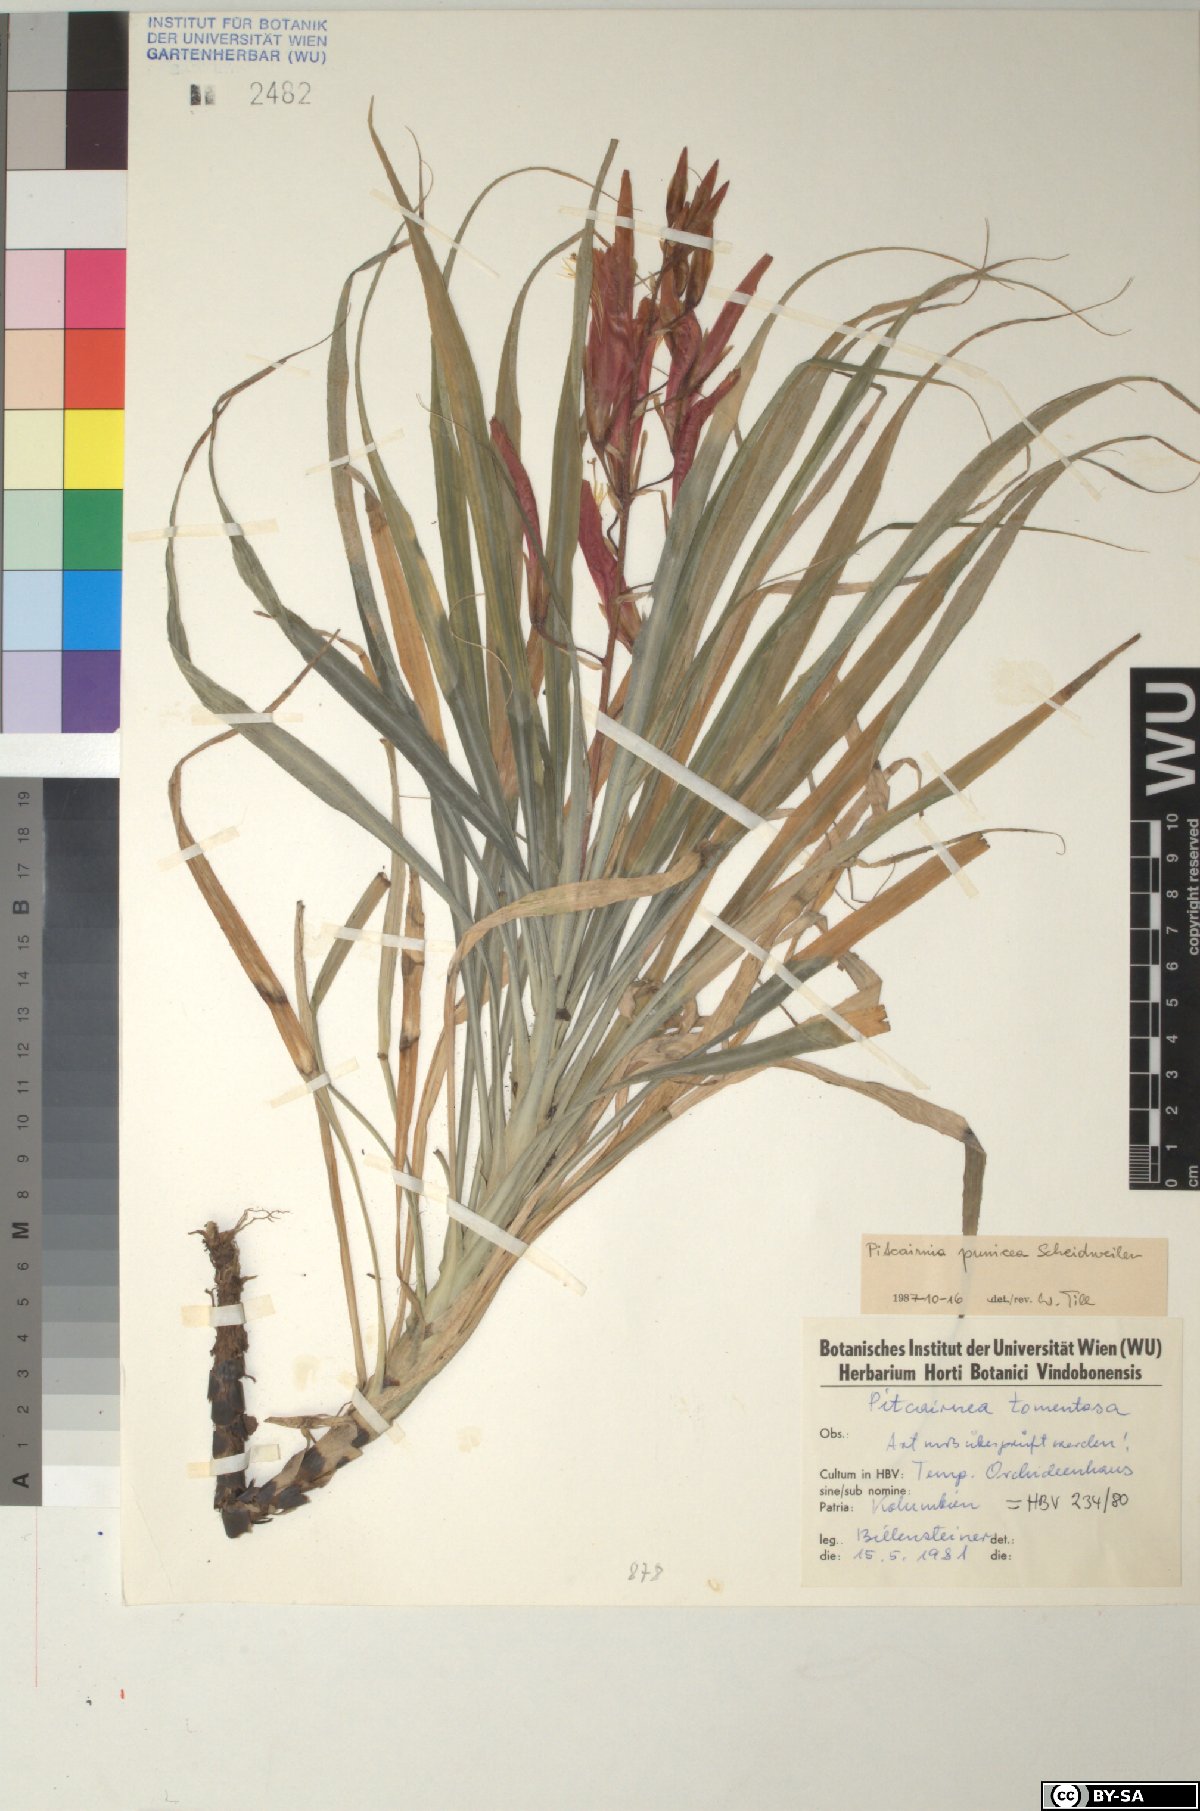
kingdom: Plantae
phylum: Tracheophyta
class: Liliopsida
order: Poales
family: Bromeliaceae
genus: Pitcairnia
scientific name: Pitcairnia angustifolia
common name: Clapper
